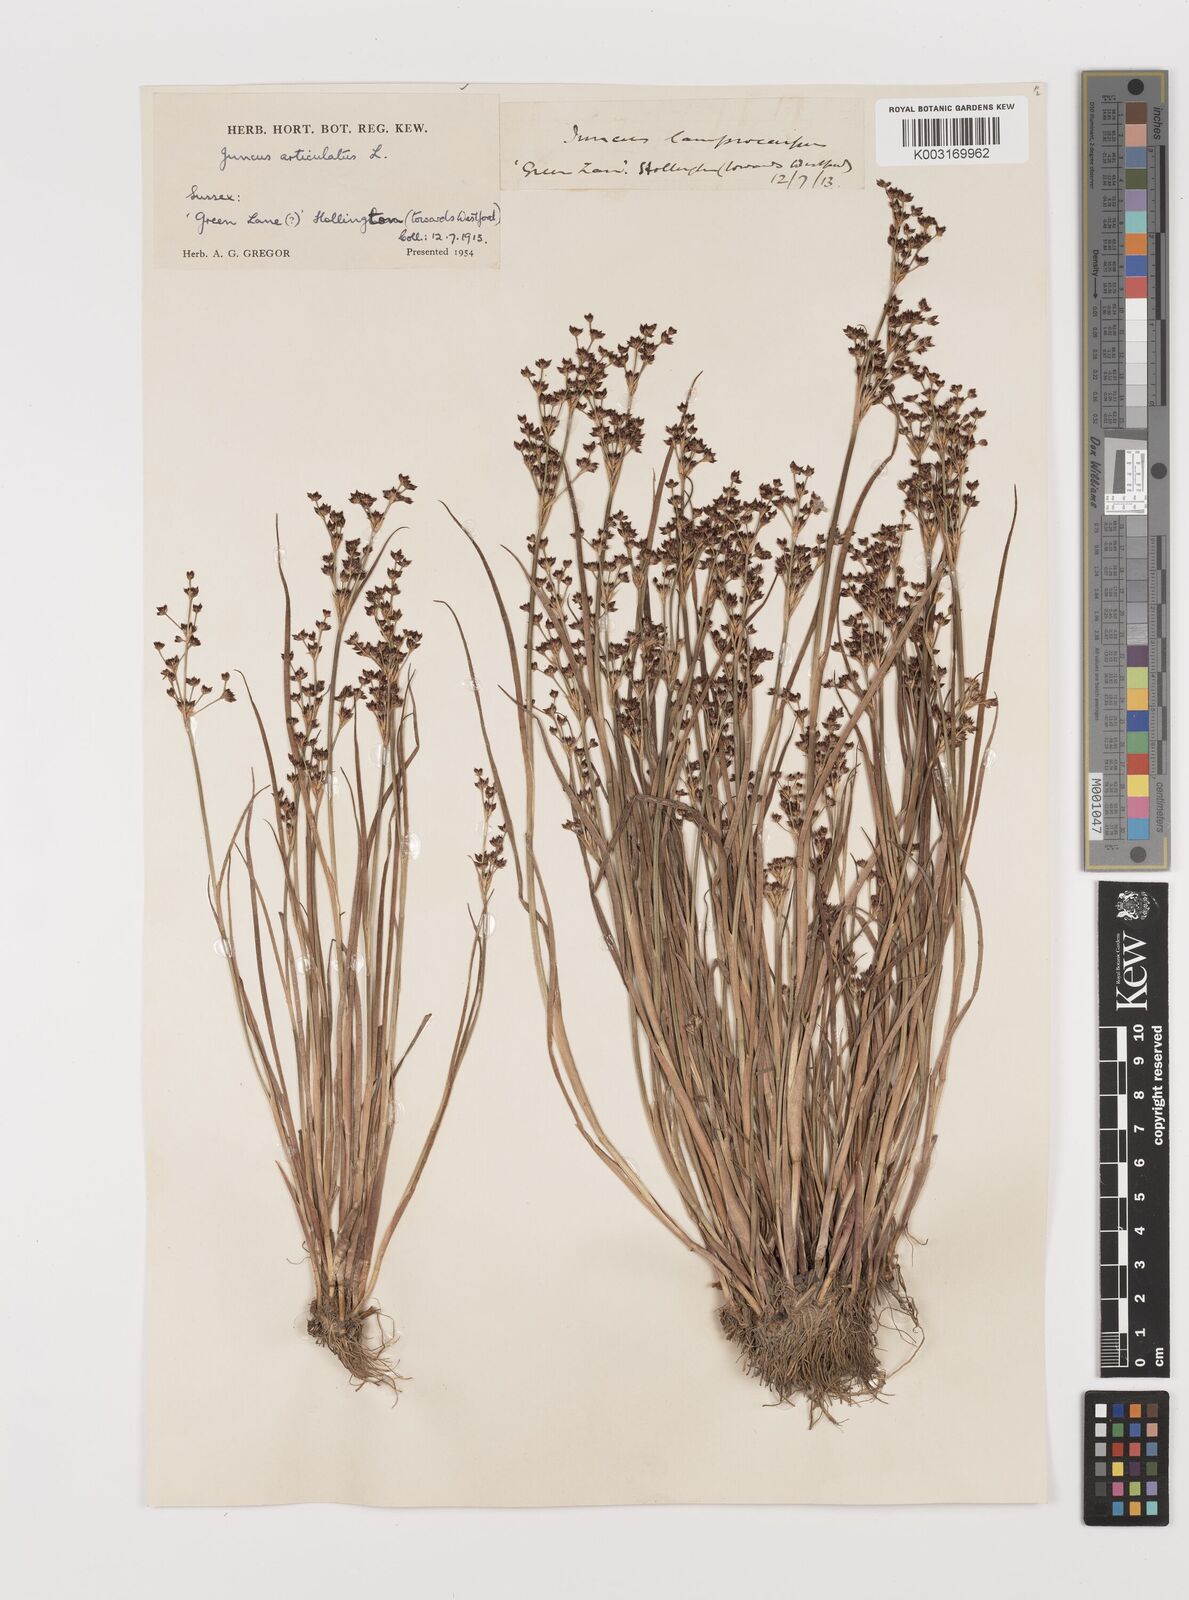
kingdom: Plantae
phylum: Tracheophyta
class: Liliopsida
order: Poales
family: Juncaceae
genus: Juncus
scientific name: Juncus articulatus
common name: Jointed rush
